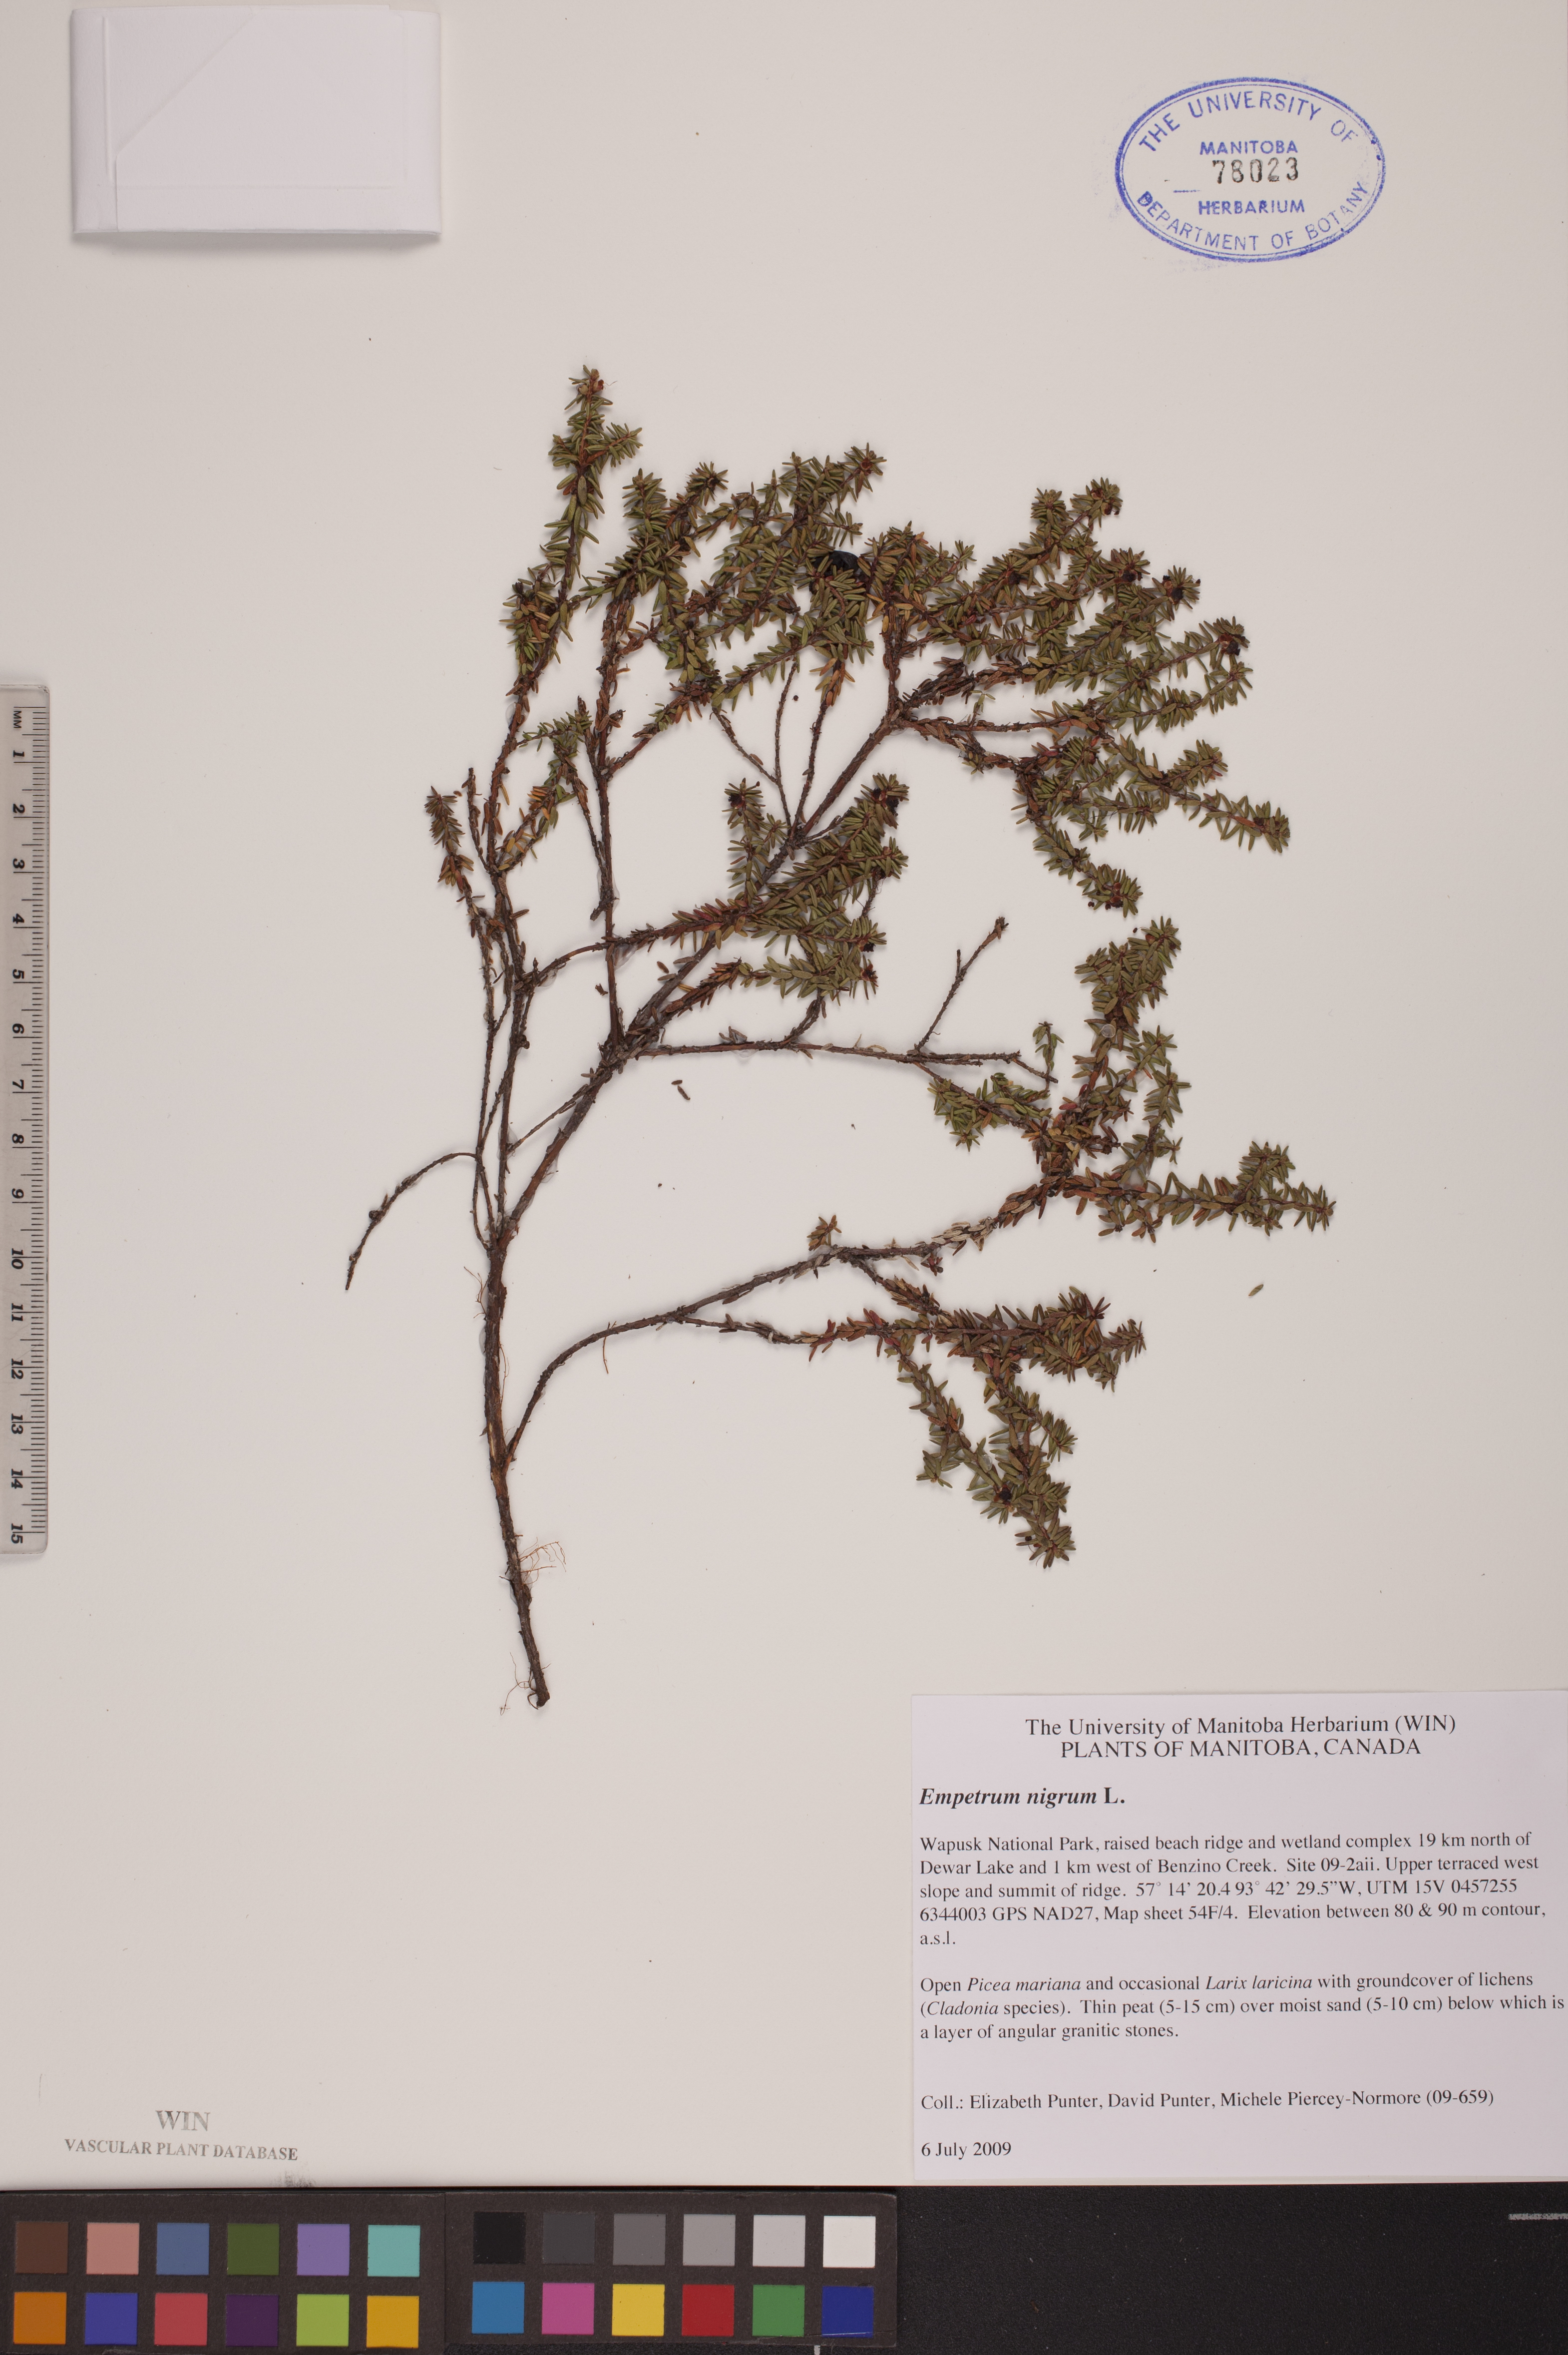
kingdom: Plantae
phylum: Tracheophyta
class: Magnoliopsida
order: Ericales
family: Ericaceae
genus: Empetrum
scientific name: Empetrum nigrum
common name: Black crowberry
